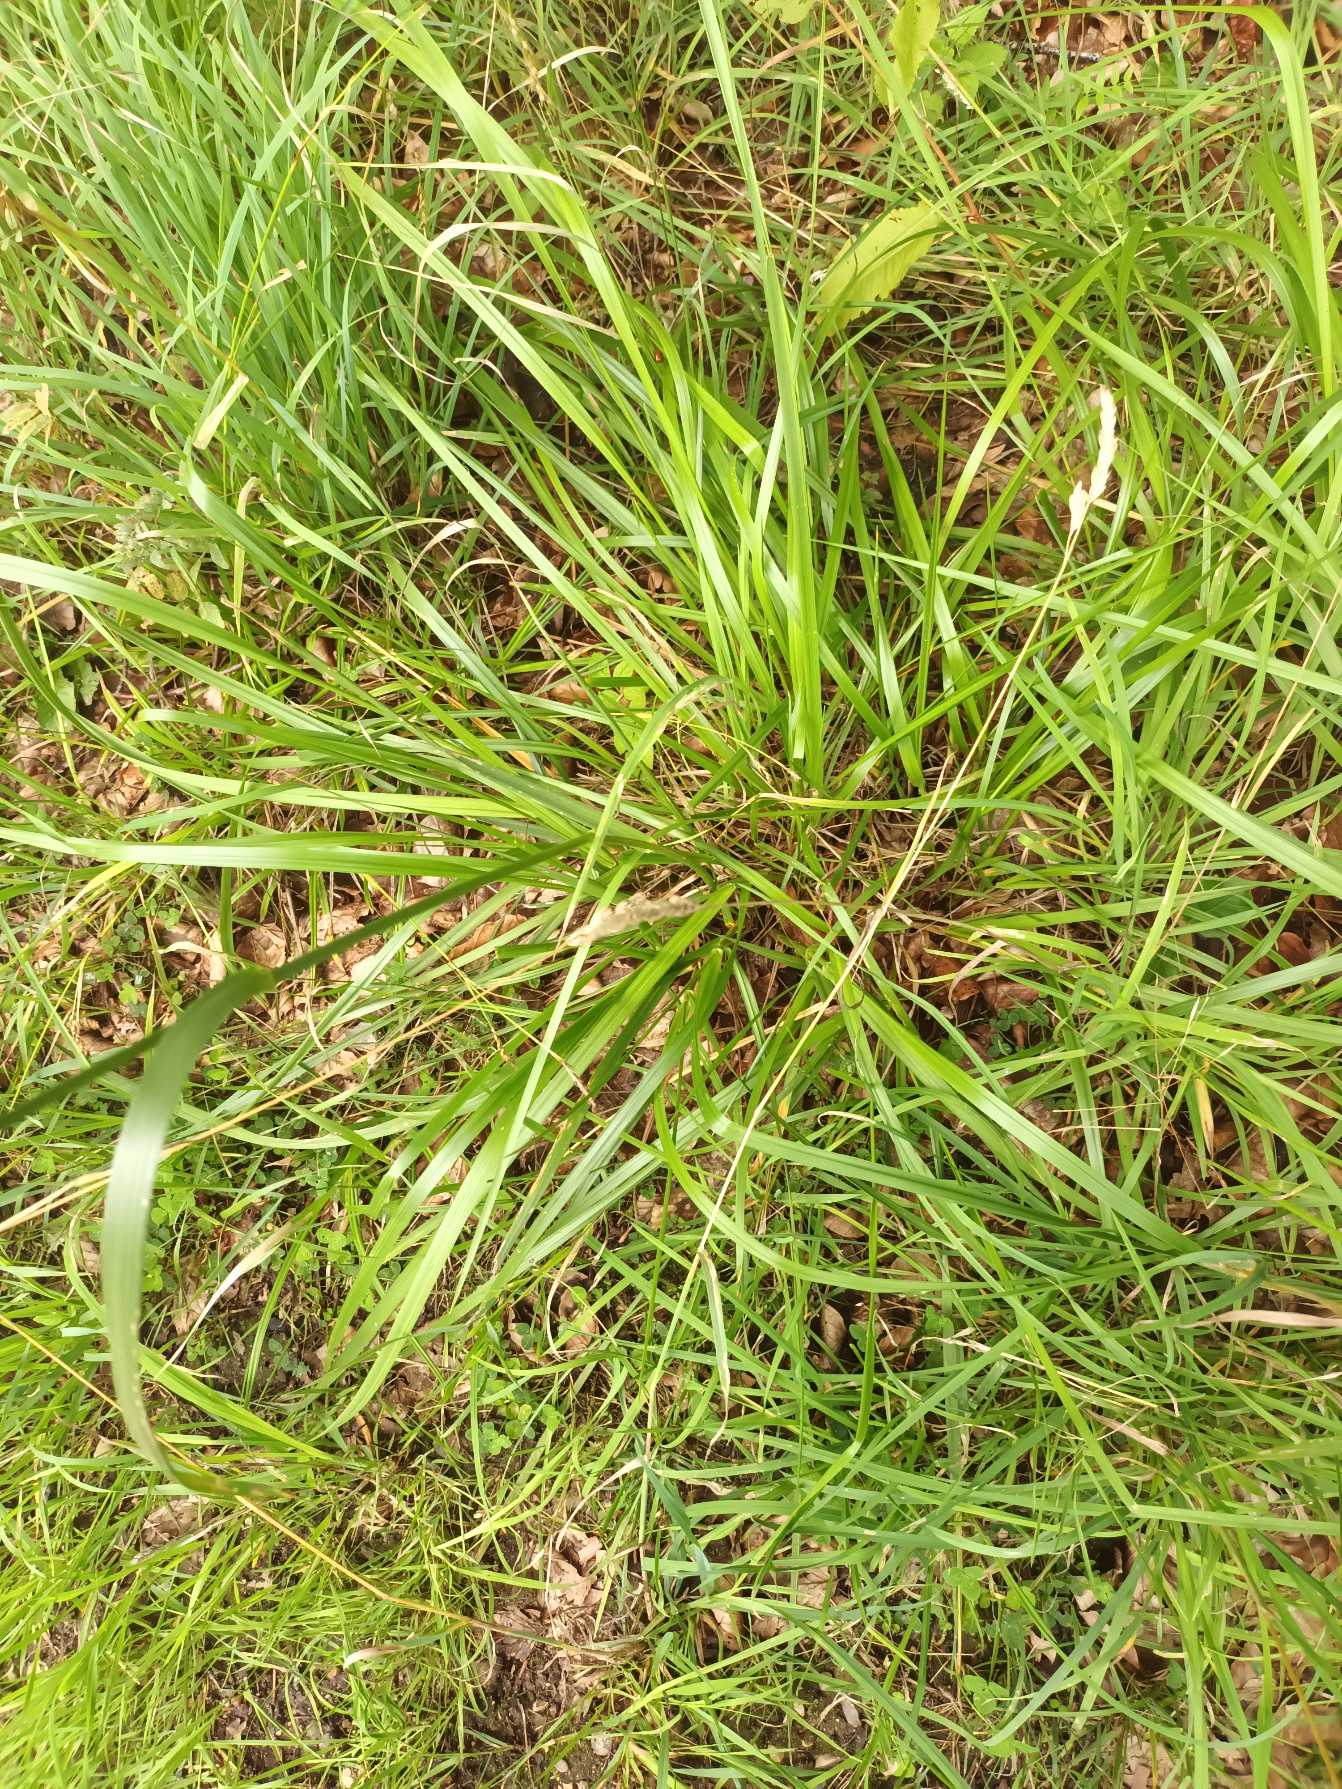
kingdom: Plantae
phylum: Tracheophyta
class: Liliopsida
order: Poales
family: Poaceae
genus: Lolium
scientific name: Lolium arundinaceum
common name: Strand-svingel
